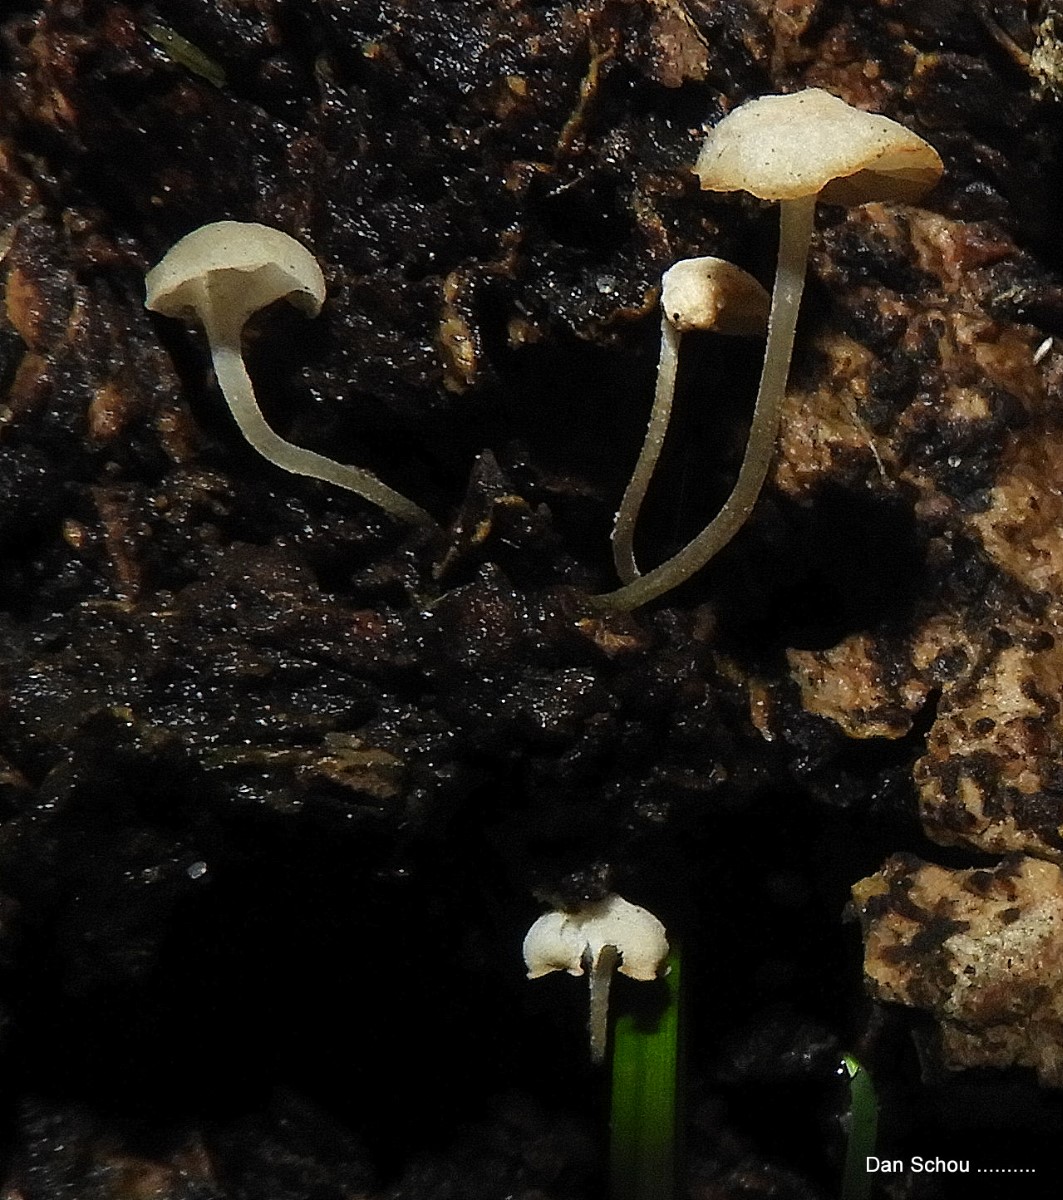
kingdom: Fungi
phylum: Basidiomycota
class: Agaricomycetes
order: Agaricales
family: Porotheleaceae
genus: Phloeomana
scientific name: Phloeomana
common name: huesvamp
